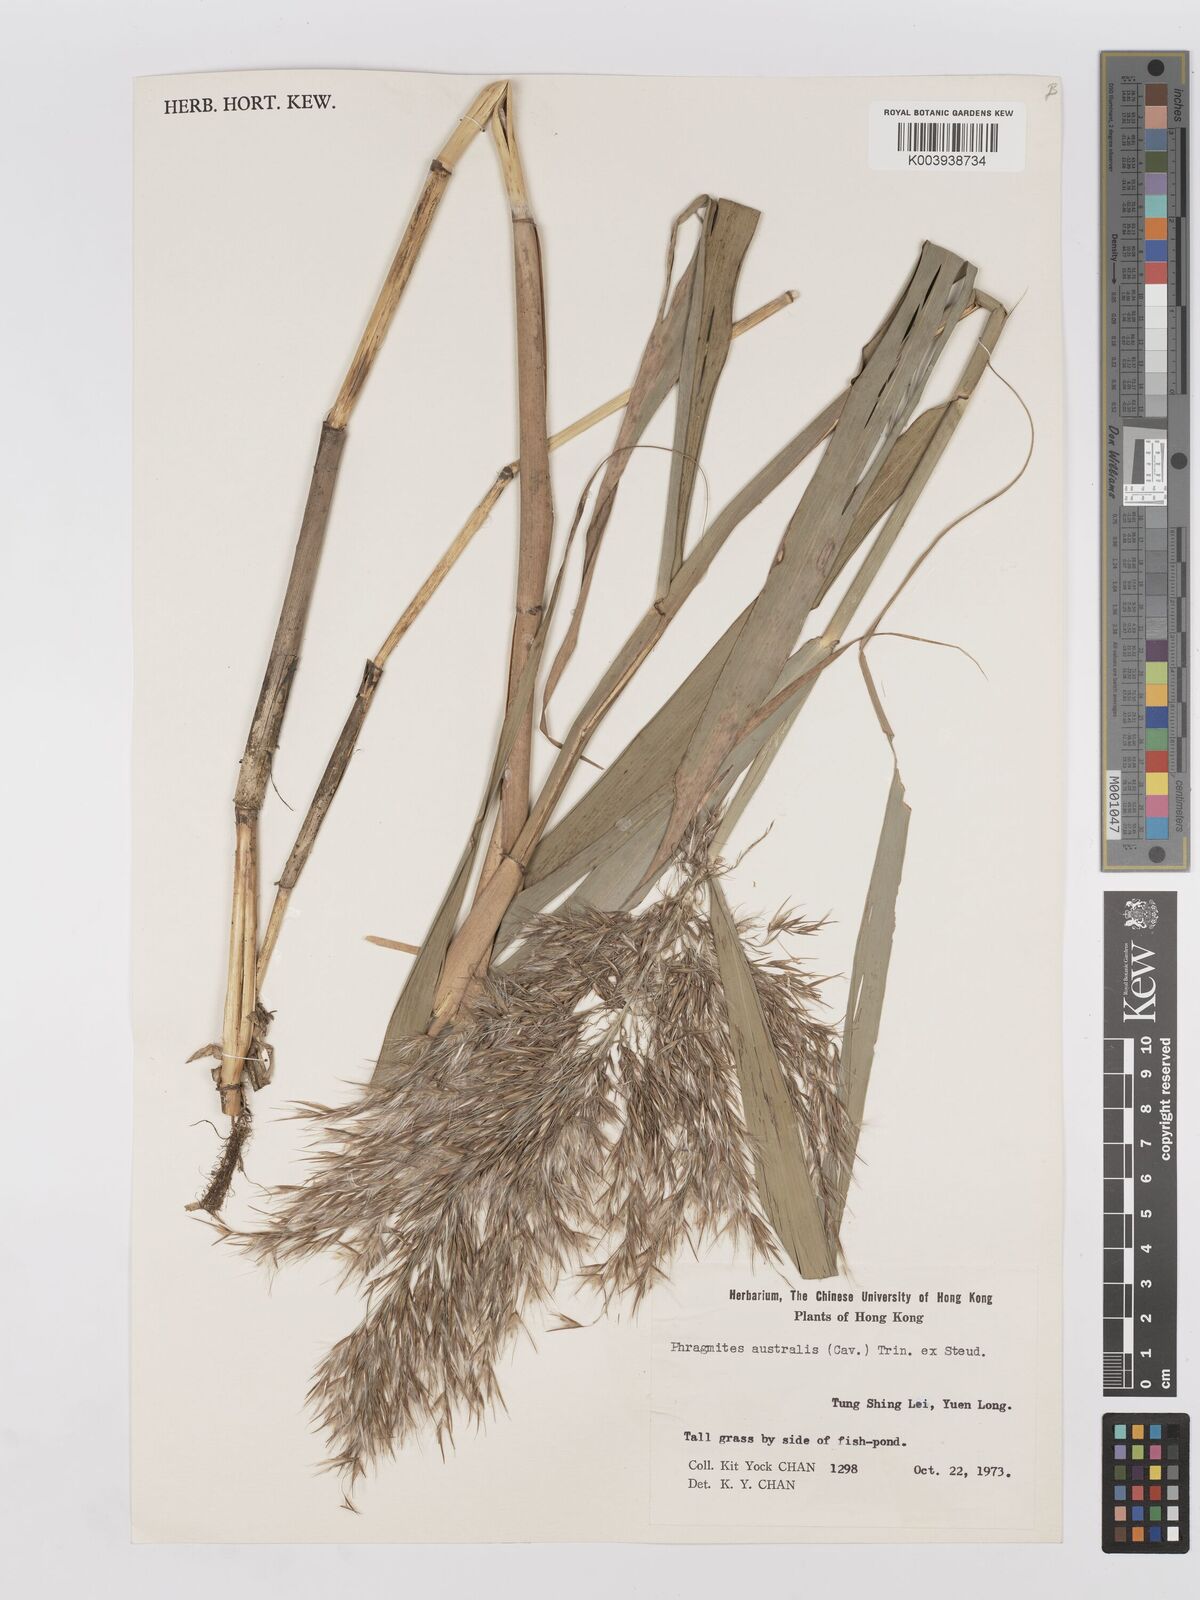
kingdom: Plantae
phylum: Tracheophyta
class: Liliopsida
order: Poales
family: Poaceae
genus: Phragmites
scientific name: Phragmites australis
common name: Common reed
